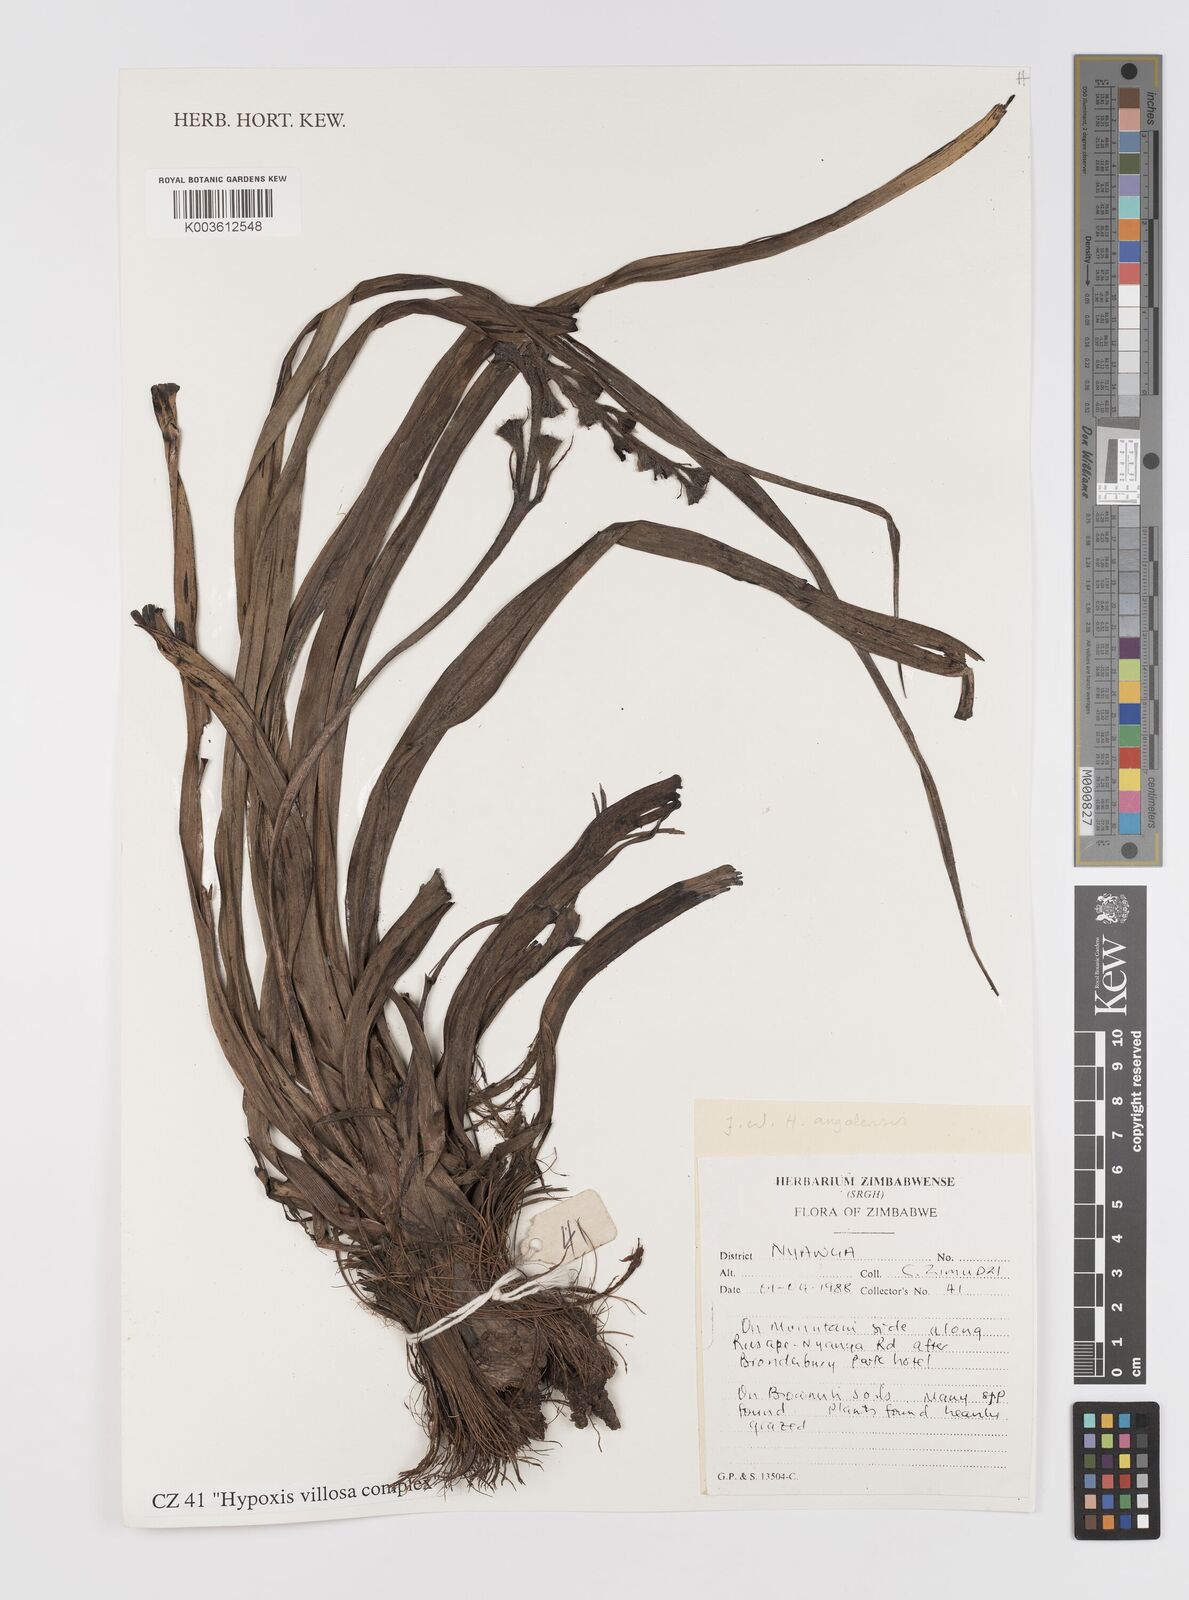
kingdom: Plantae
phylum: Tracheophyta
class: Liliopsida
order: Asparagales
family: Hypoxidaceae
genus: Hypoxis
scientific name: Hypoxis
